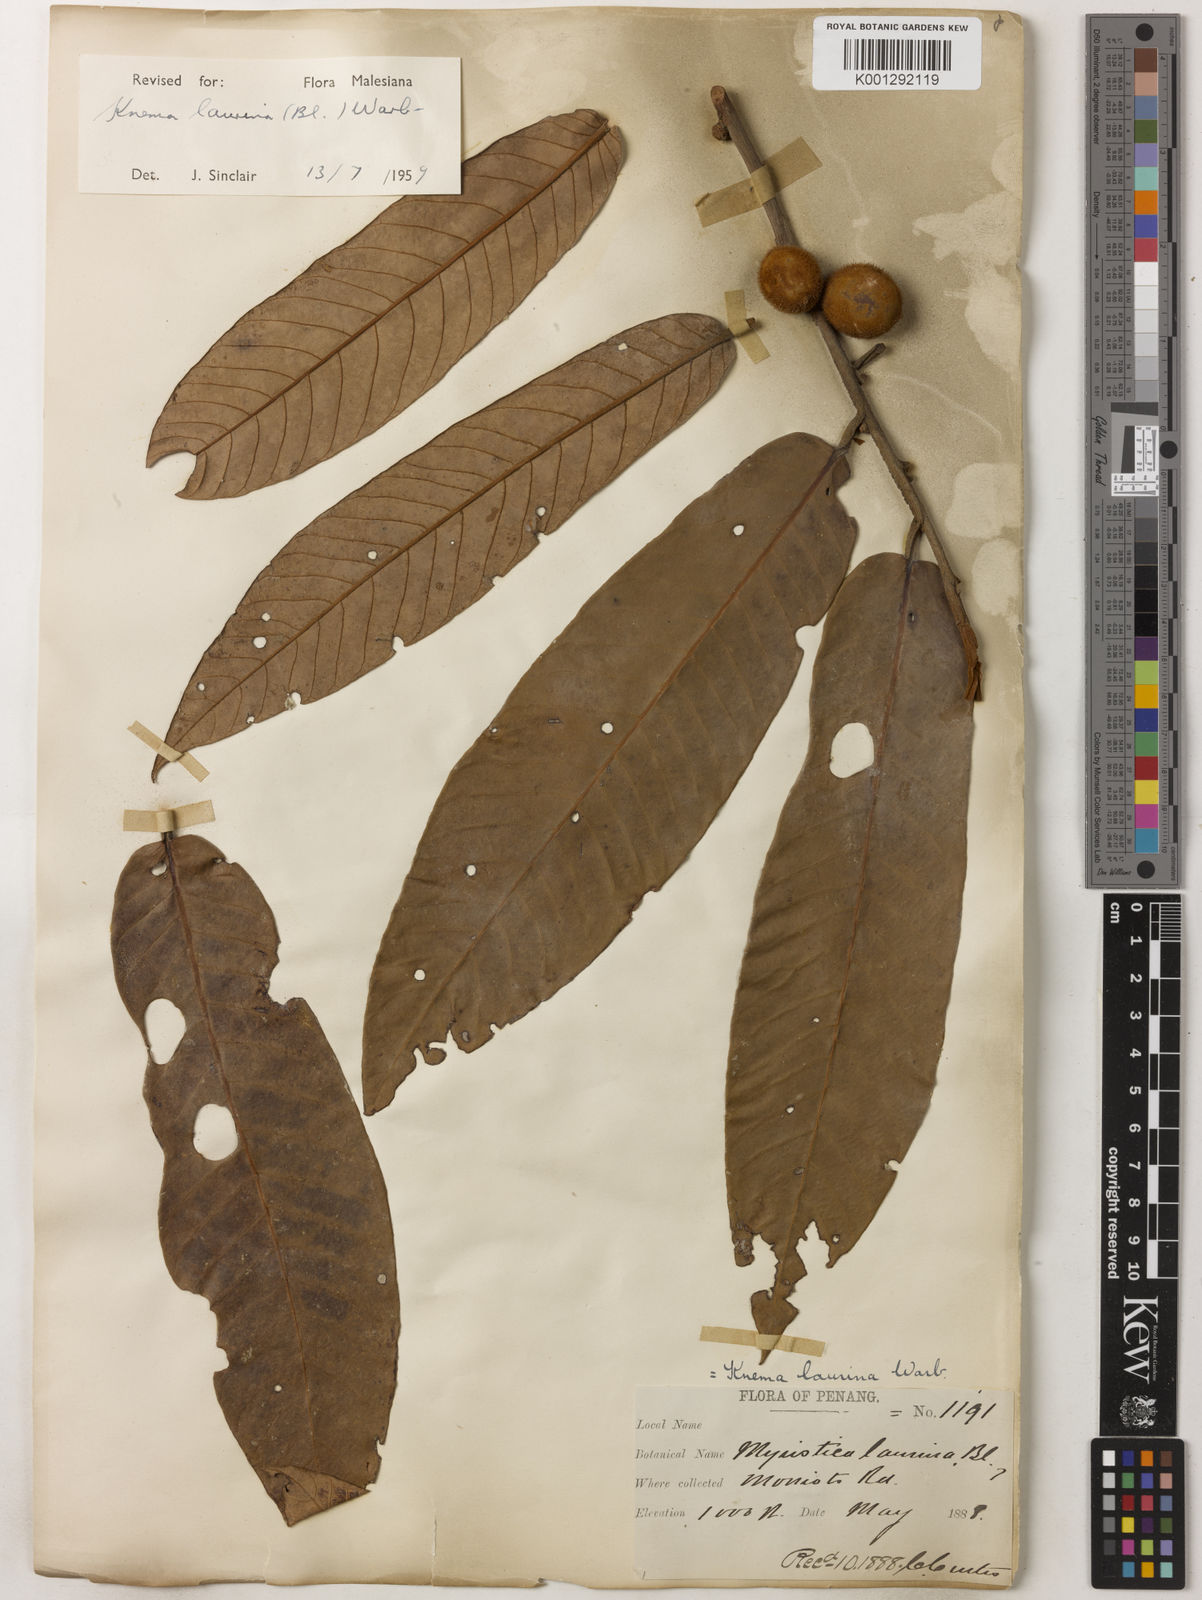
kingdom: Plantae
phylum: Tracheophyta
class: Magnoliopsida
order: Magnoliales
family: Myristicaceae
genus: Knema
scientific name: Knema laurina
